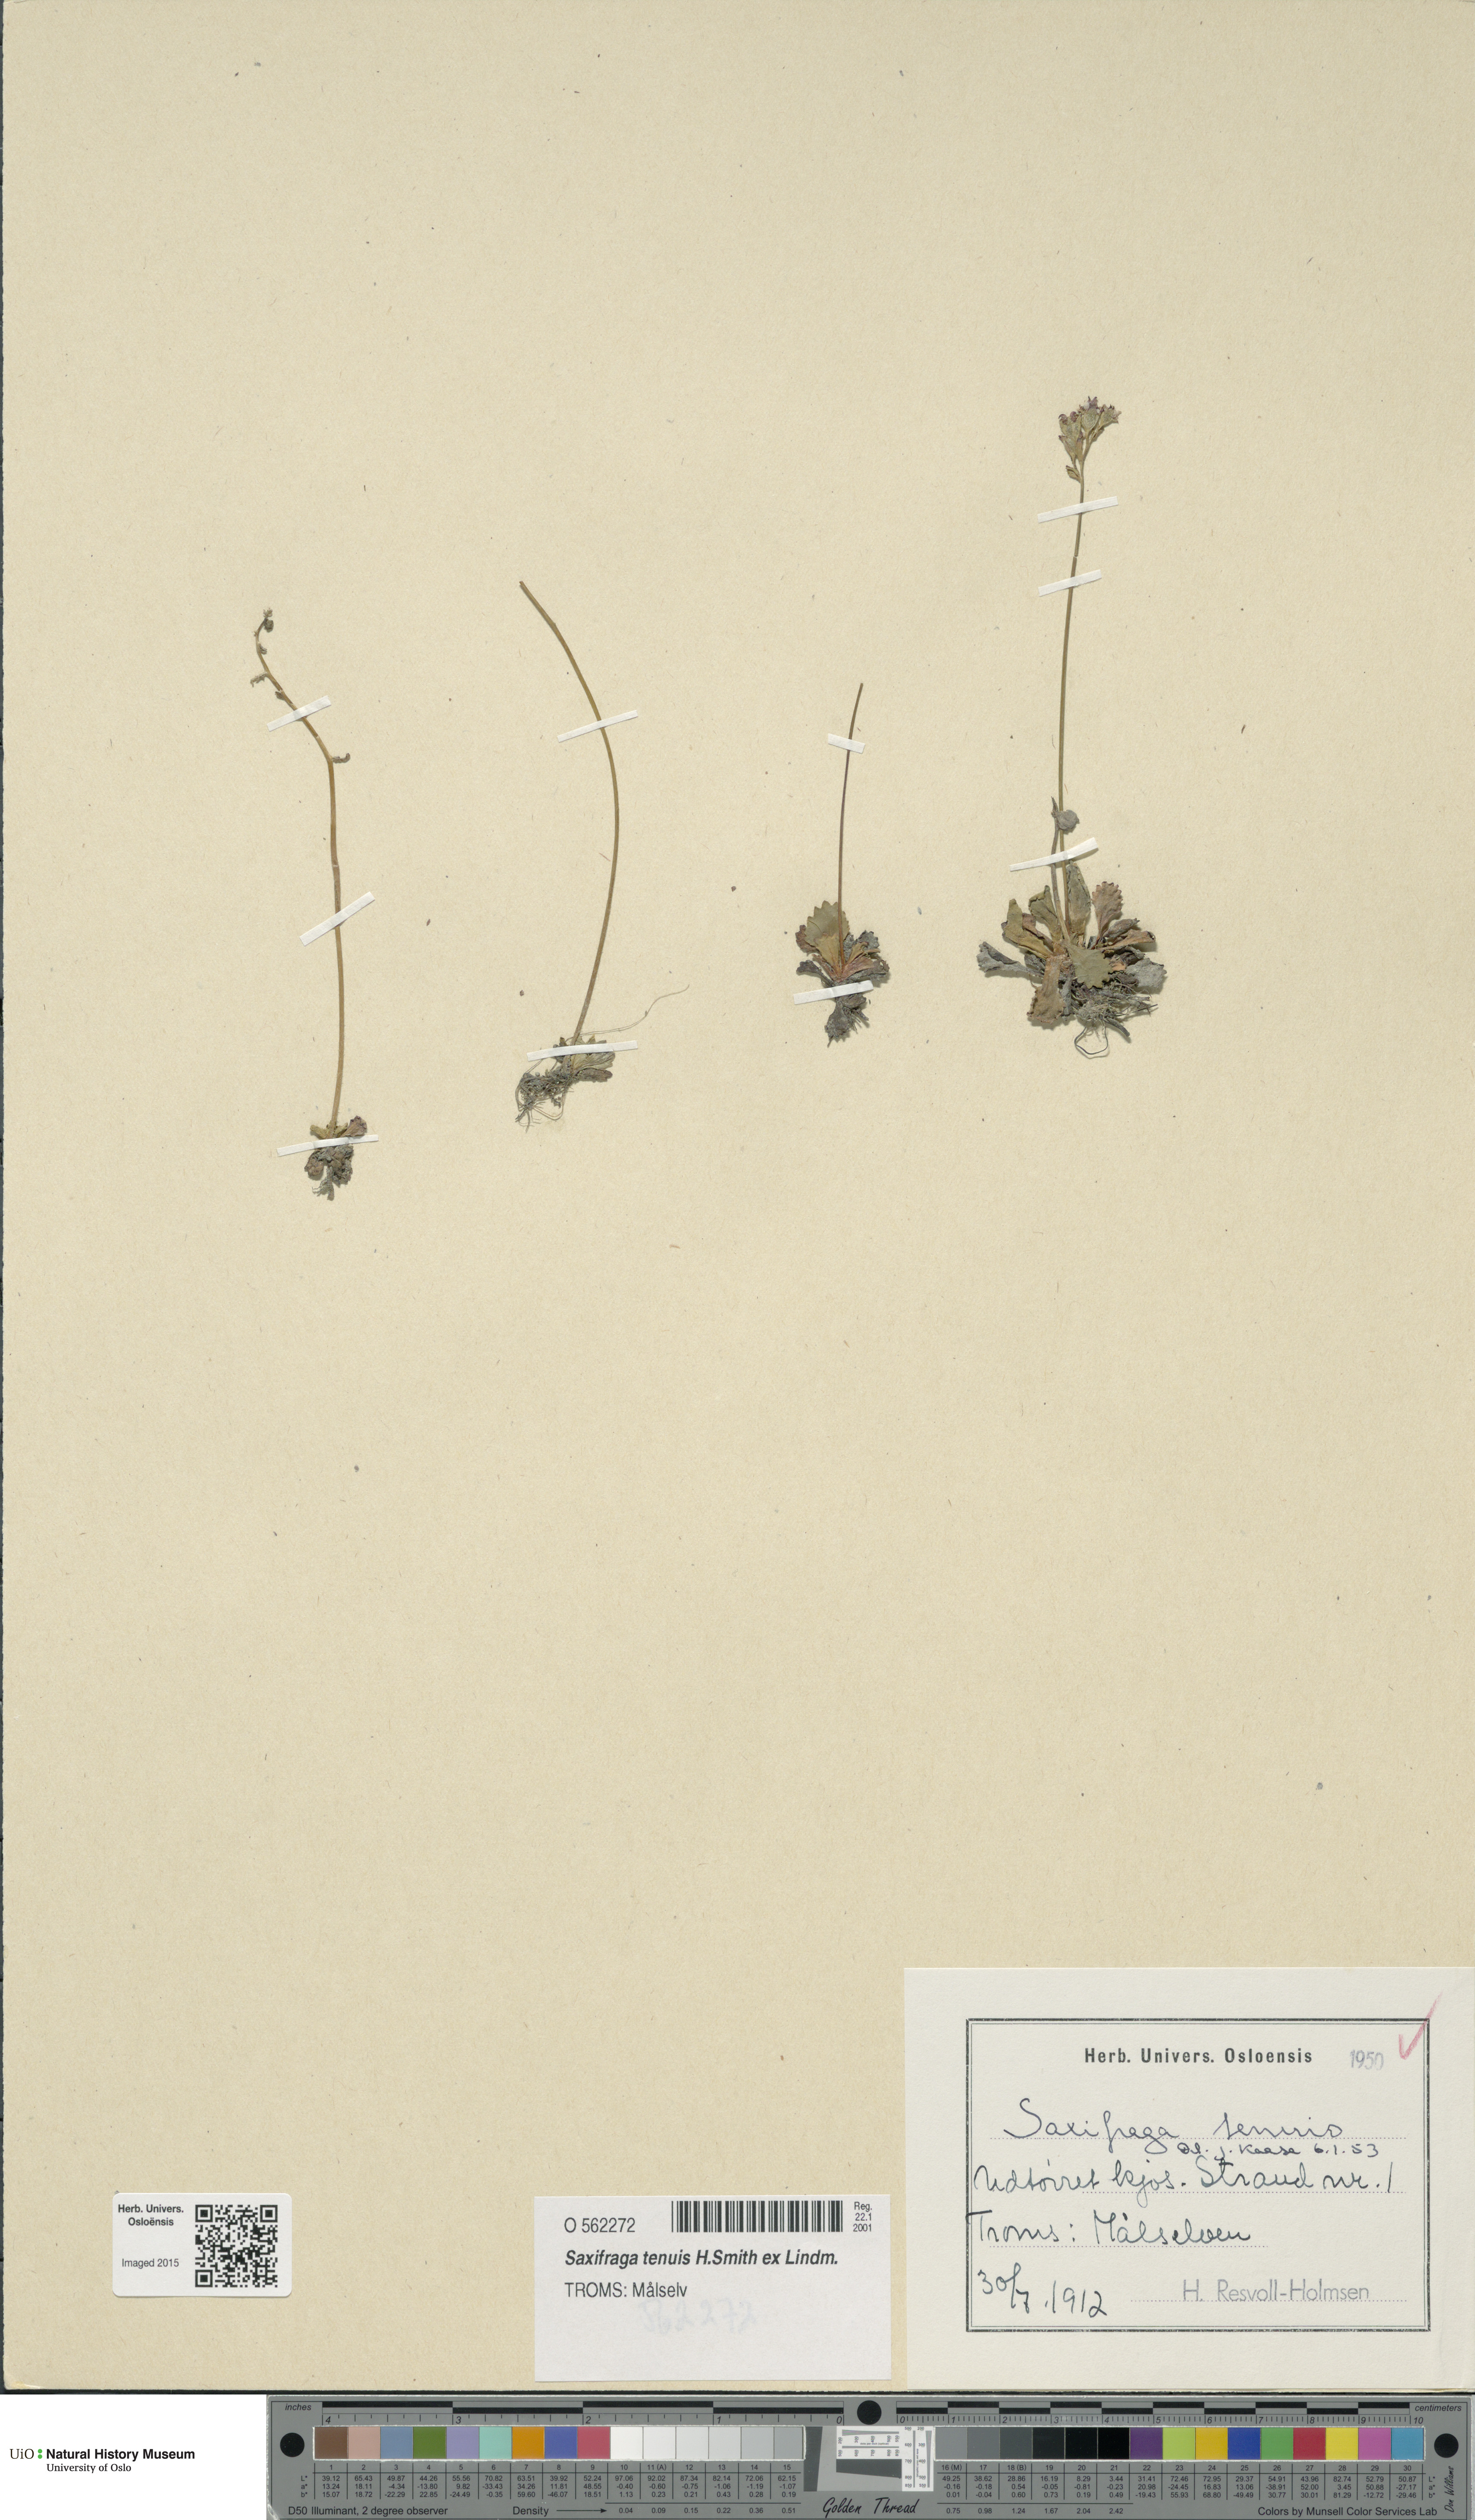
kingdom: Plantae
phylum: Tracheophyta
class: Magnoliopsida
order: Saxifragales
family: Saxifragaceae
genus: Micranthes
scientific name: Micranthes tenuis
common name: Ottertail pass saxifrage
